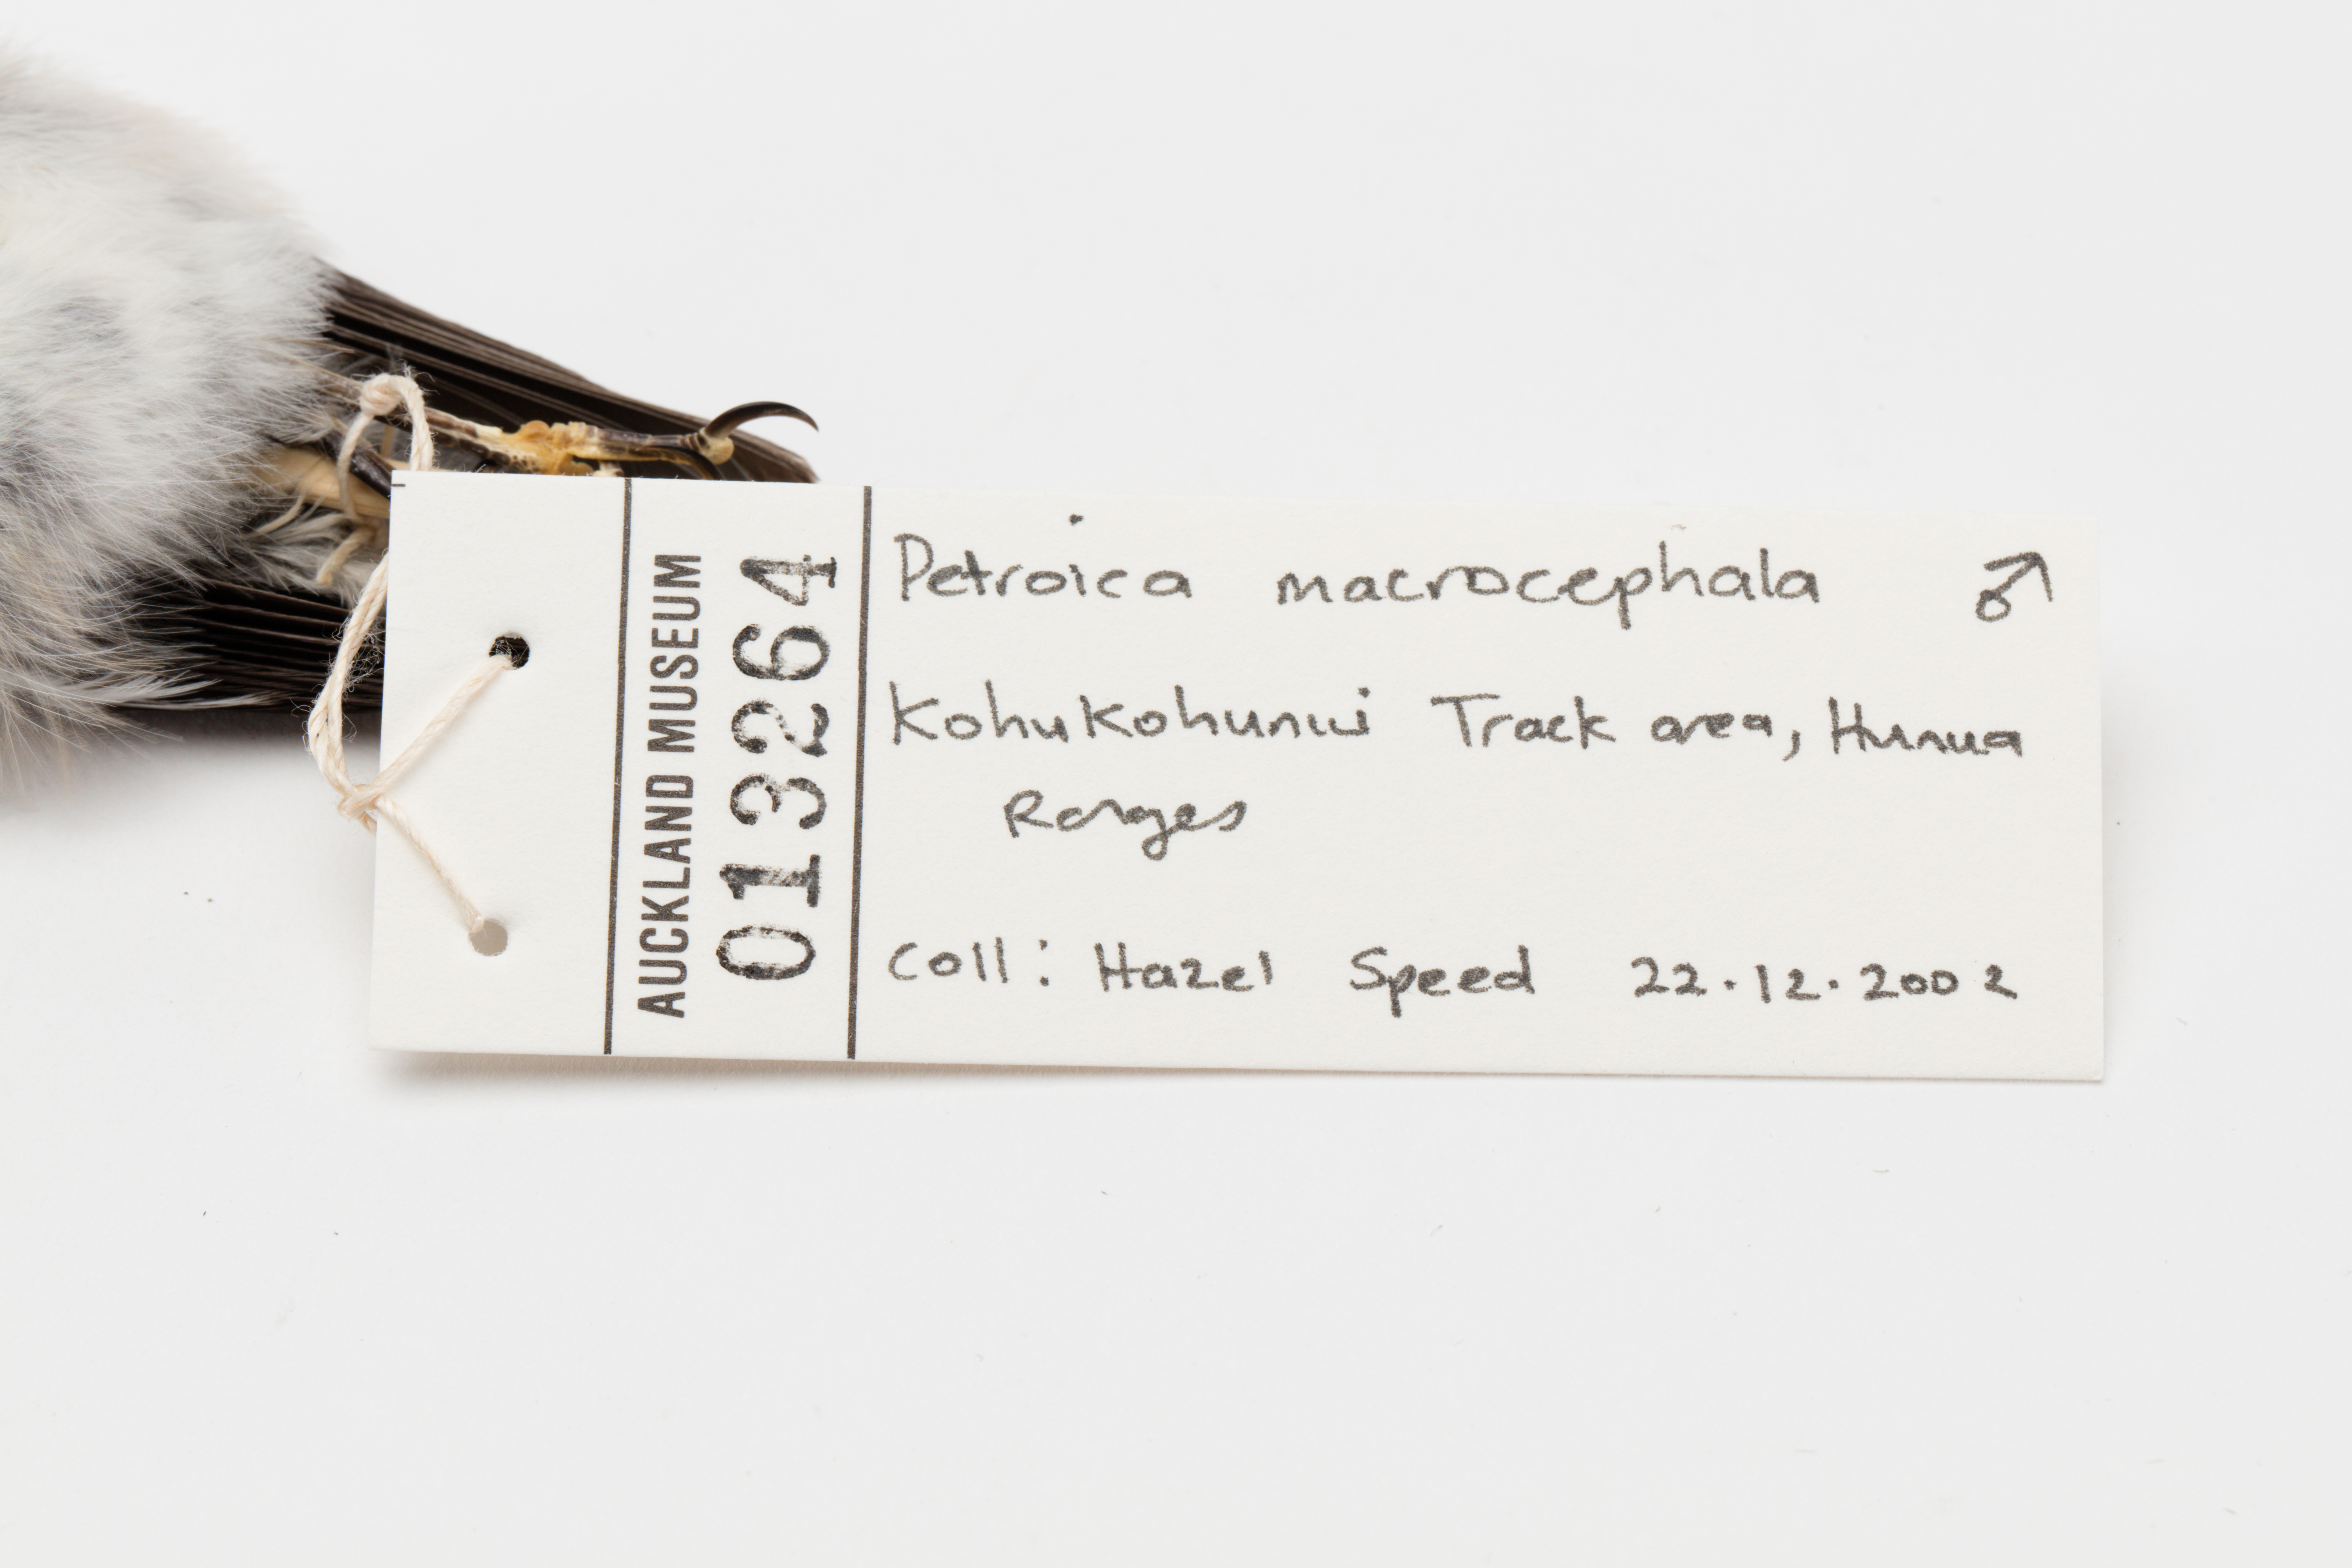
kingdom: Animalia
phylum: Chordata
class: Aves
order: Passeriformes
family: Petroicidae
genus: Petroica
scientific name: Petroica macrocephala
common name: Tomtit
